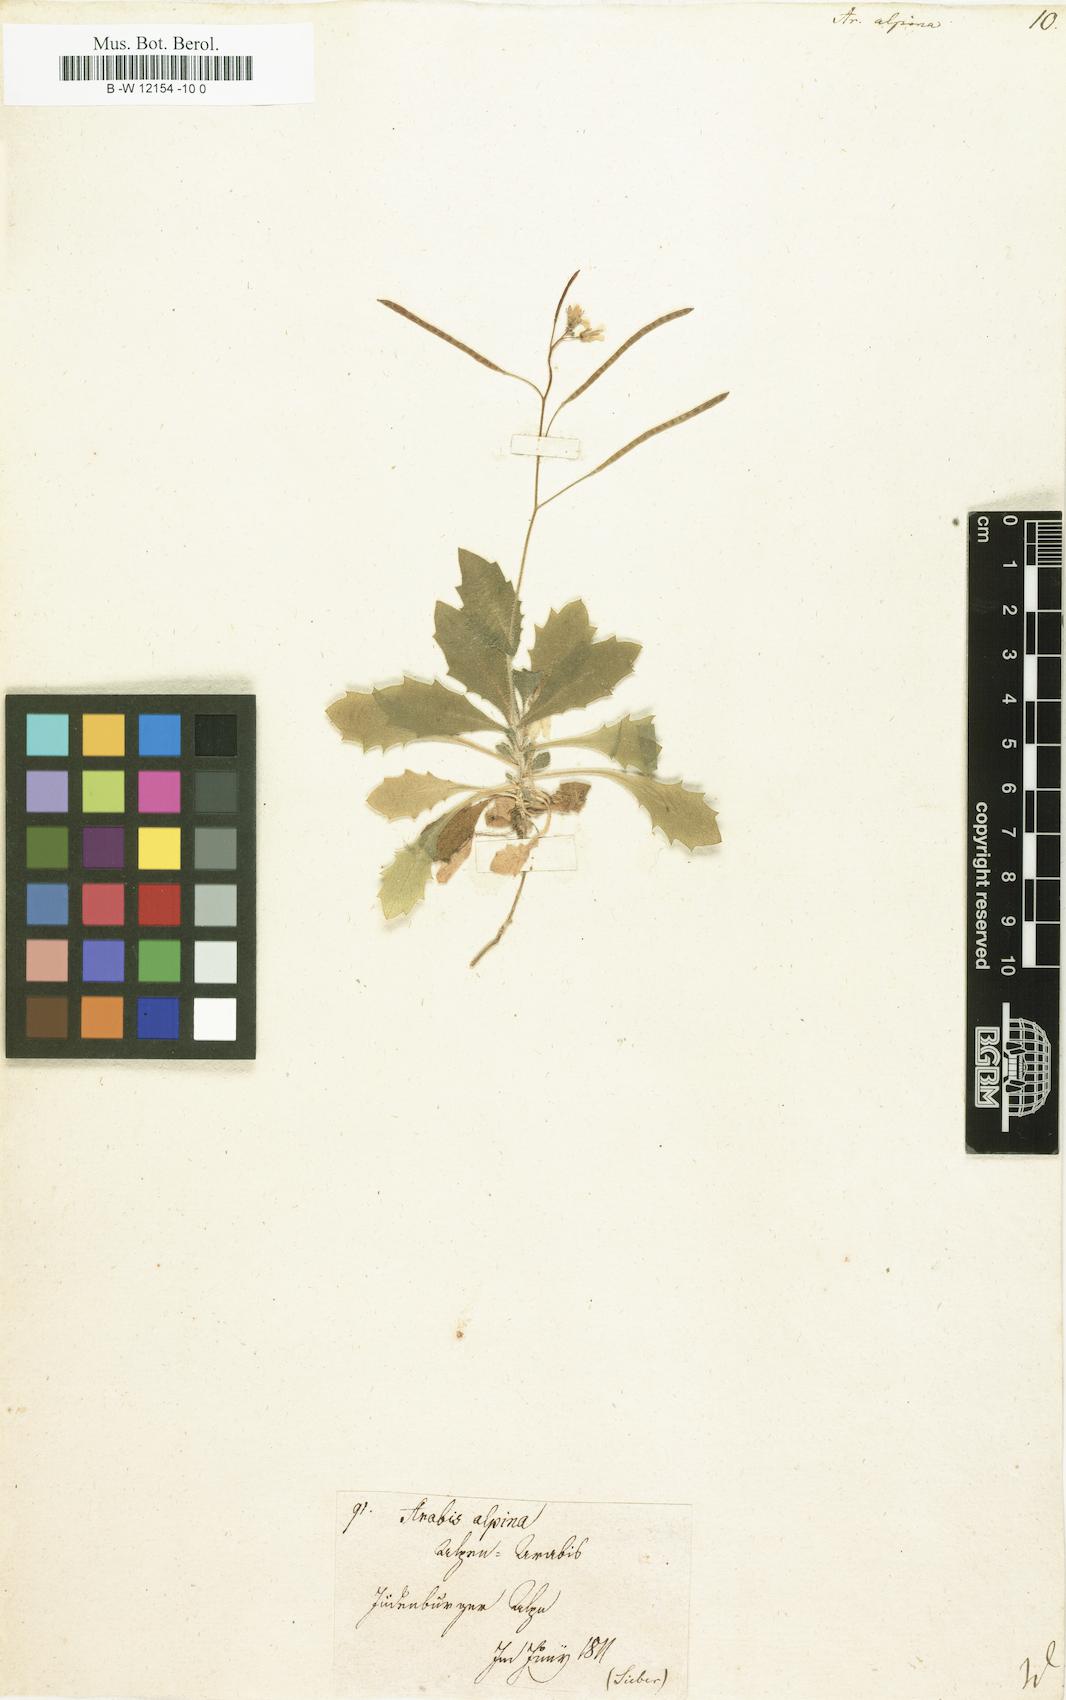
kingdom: Plantae
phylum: Tracheophyta
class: Magnoliopsida
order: Brassicales
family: Brassicaceae
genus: Arabis
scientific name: Arabis alpina
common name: Alpine rock-cress
